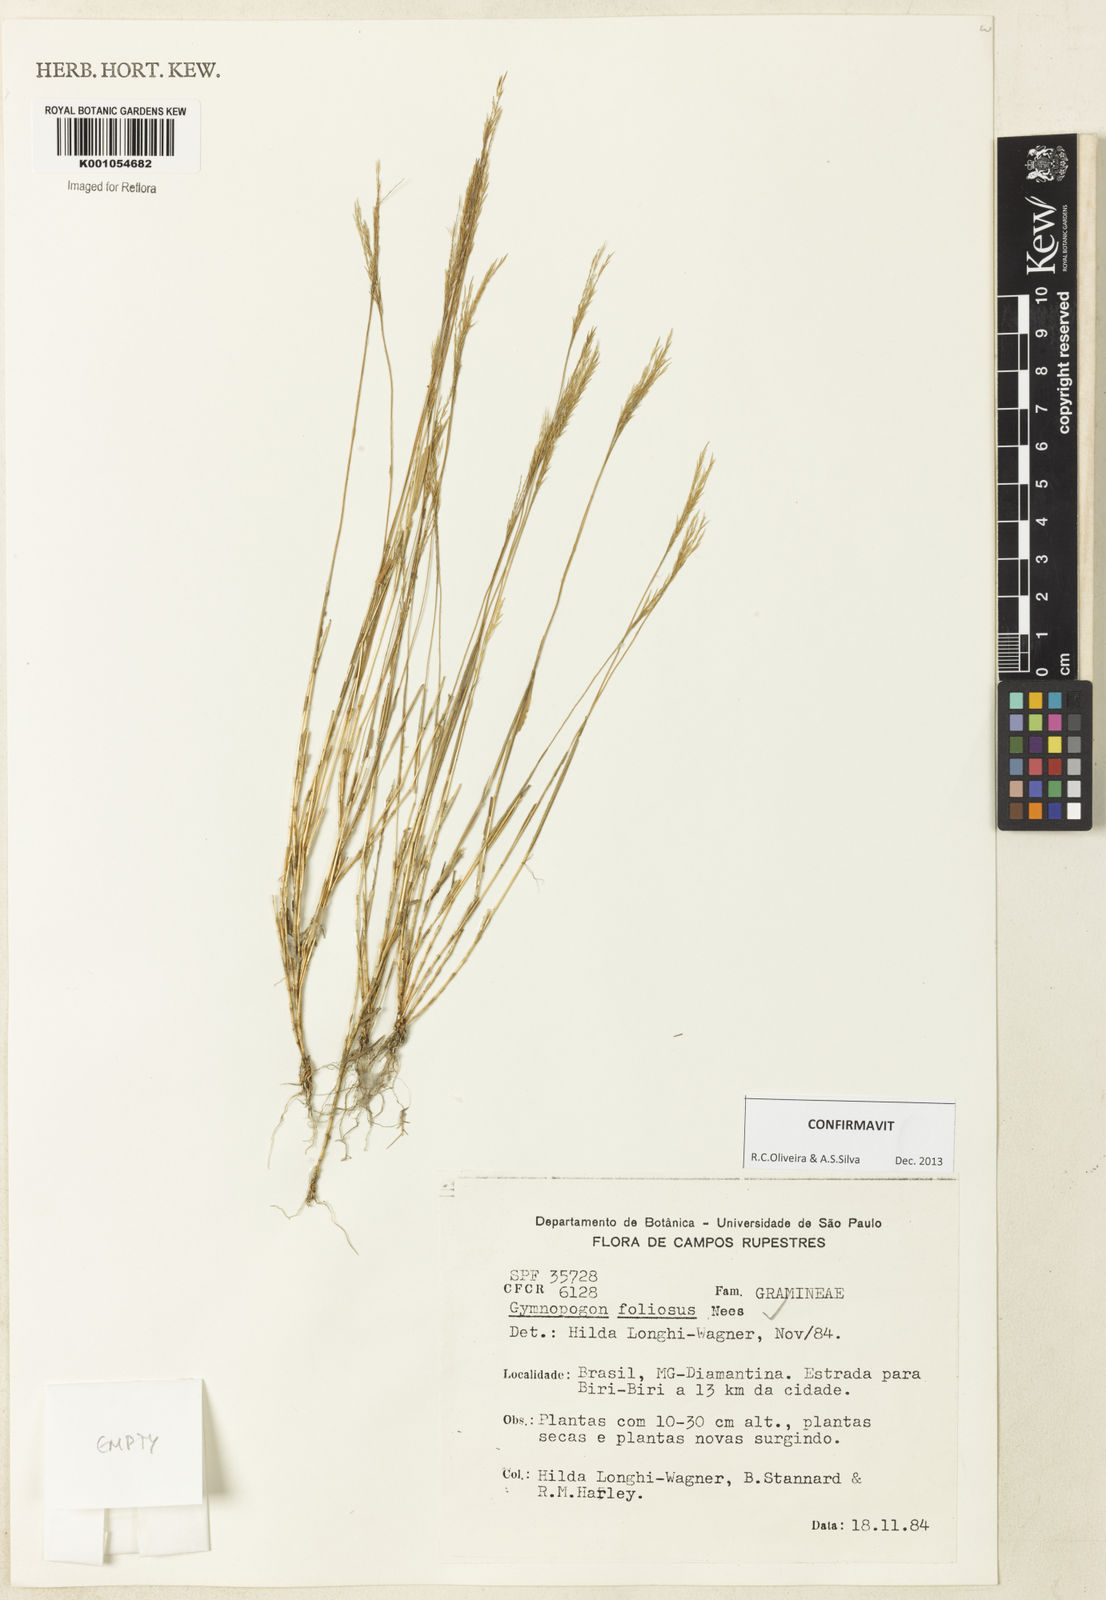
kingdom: Plantae
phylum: Tracheophyta
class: Liliopsida
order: Poales
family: Poaceae
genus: Gymnopogon
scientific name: Gymnopogon foliosus
